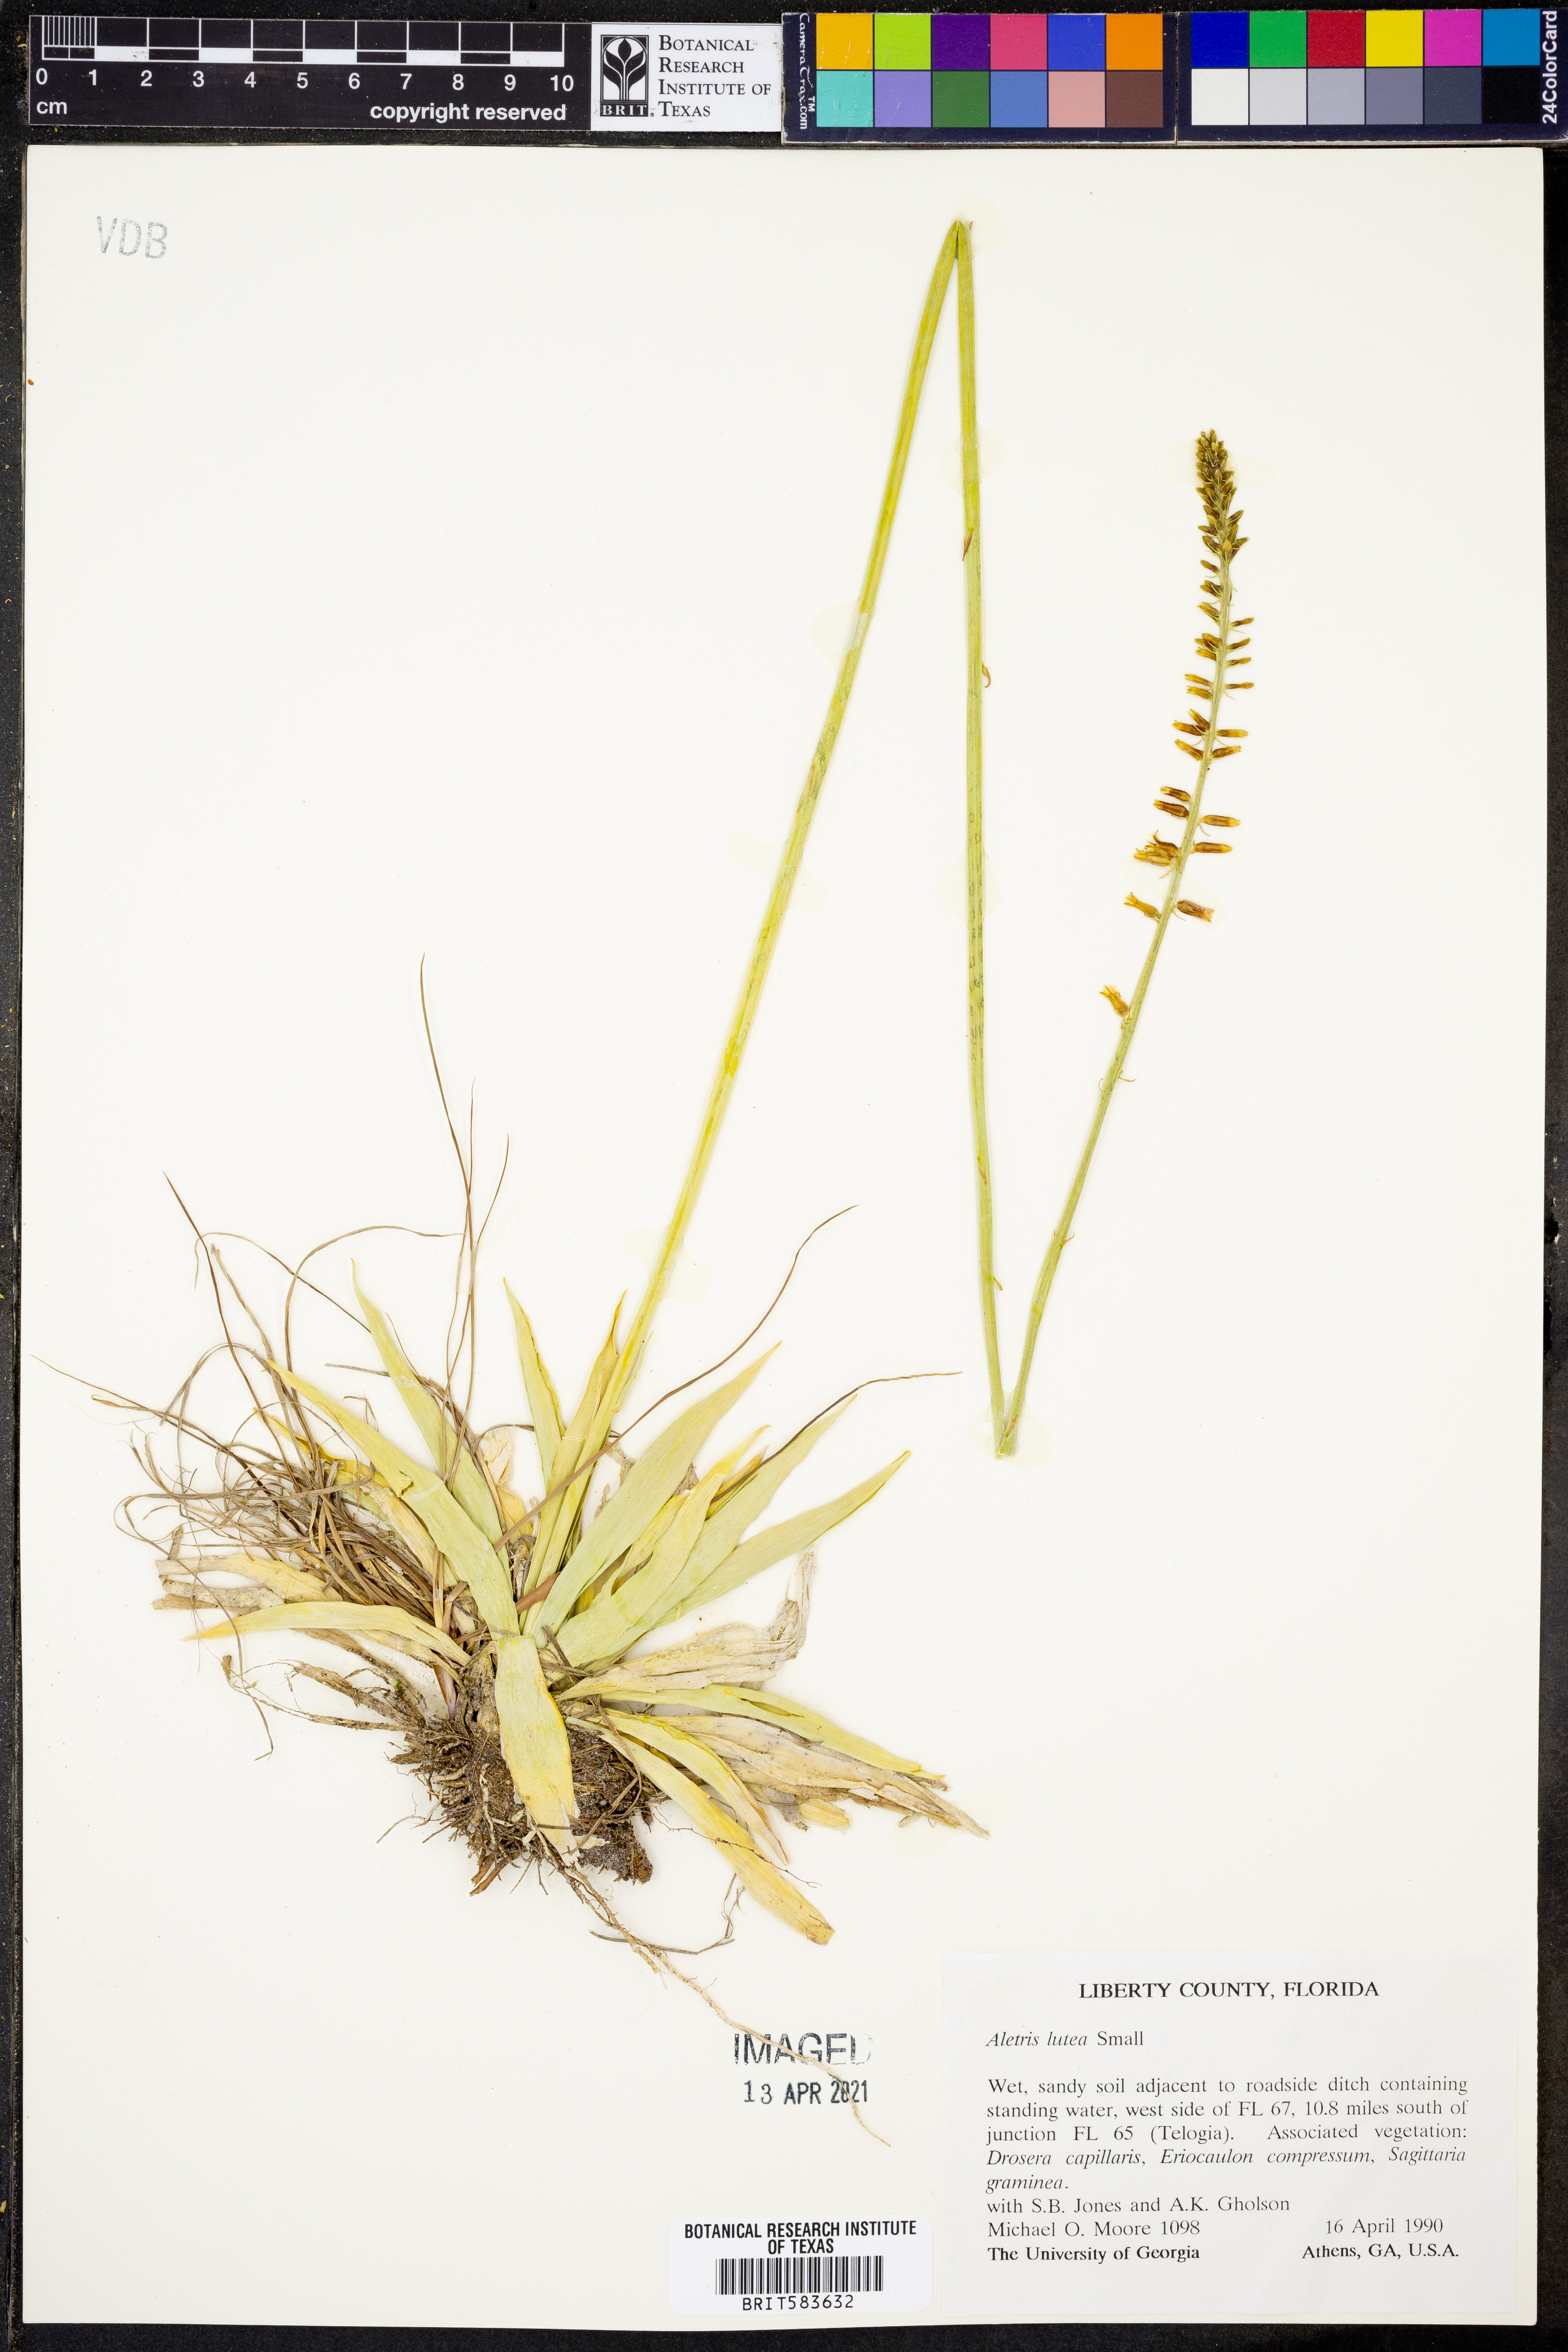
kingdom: Plantae
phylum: Tracheophyta
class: Liliopsida
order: Dioscoreales
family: Nartheciaceae
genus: Aletris
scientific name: Aletris lutea
